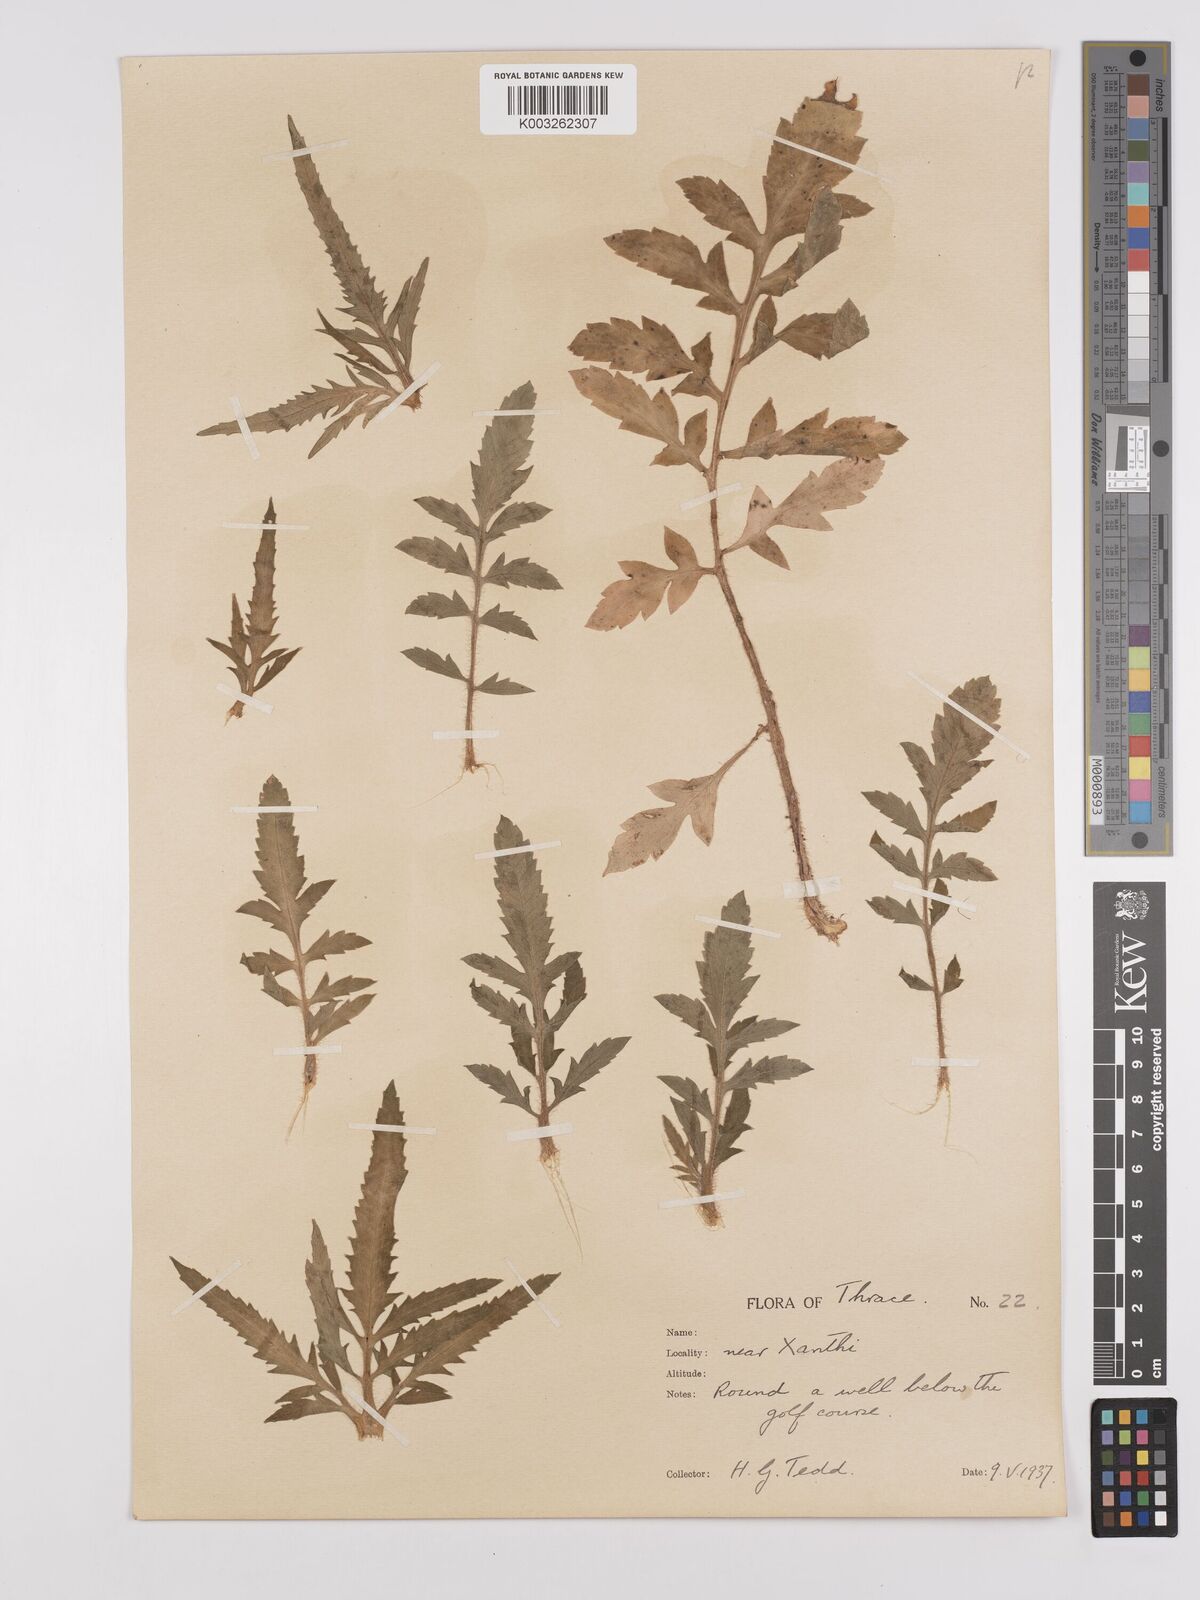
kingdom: Plantae
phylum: Tracheophyta
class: Magnoliopsida
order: Ranunculales
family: Papaveraceae
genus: Papaver
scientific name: Papaver rhoeas
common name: Corn poppy
